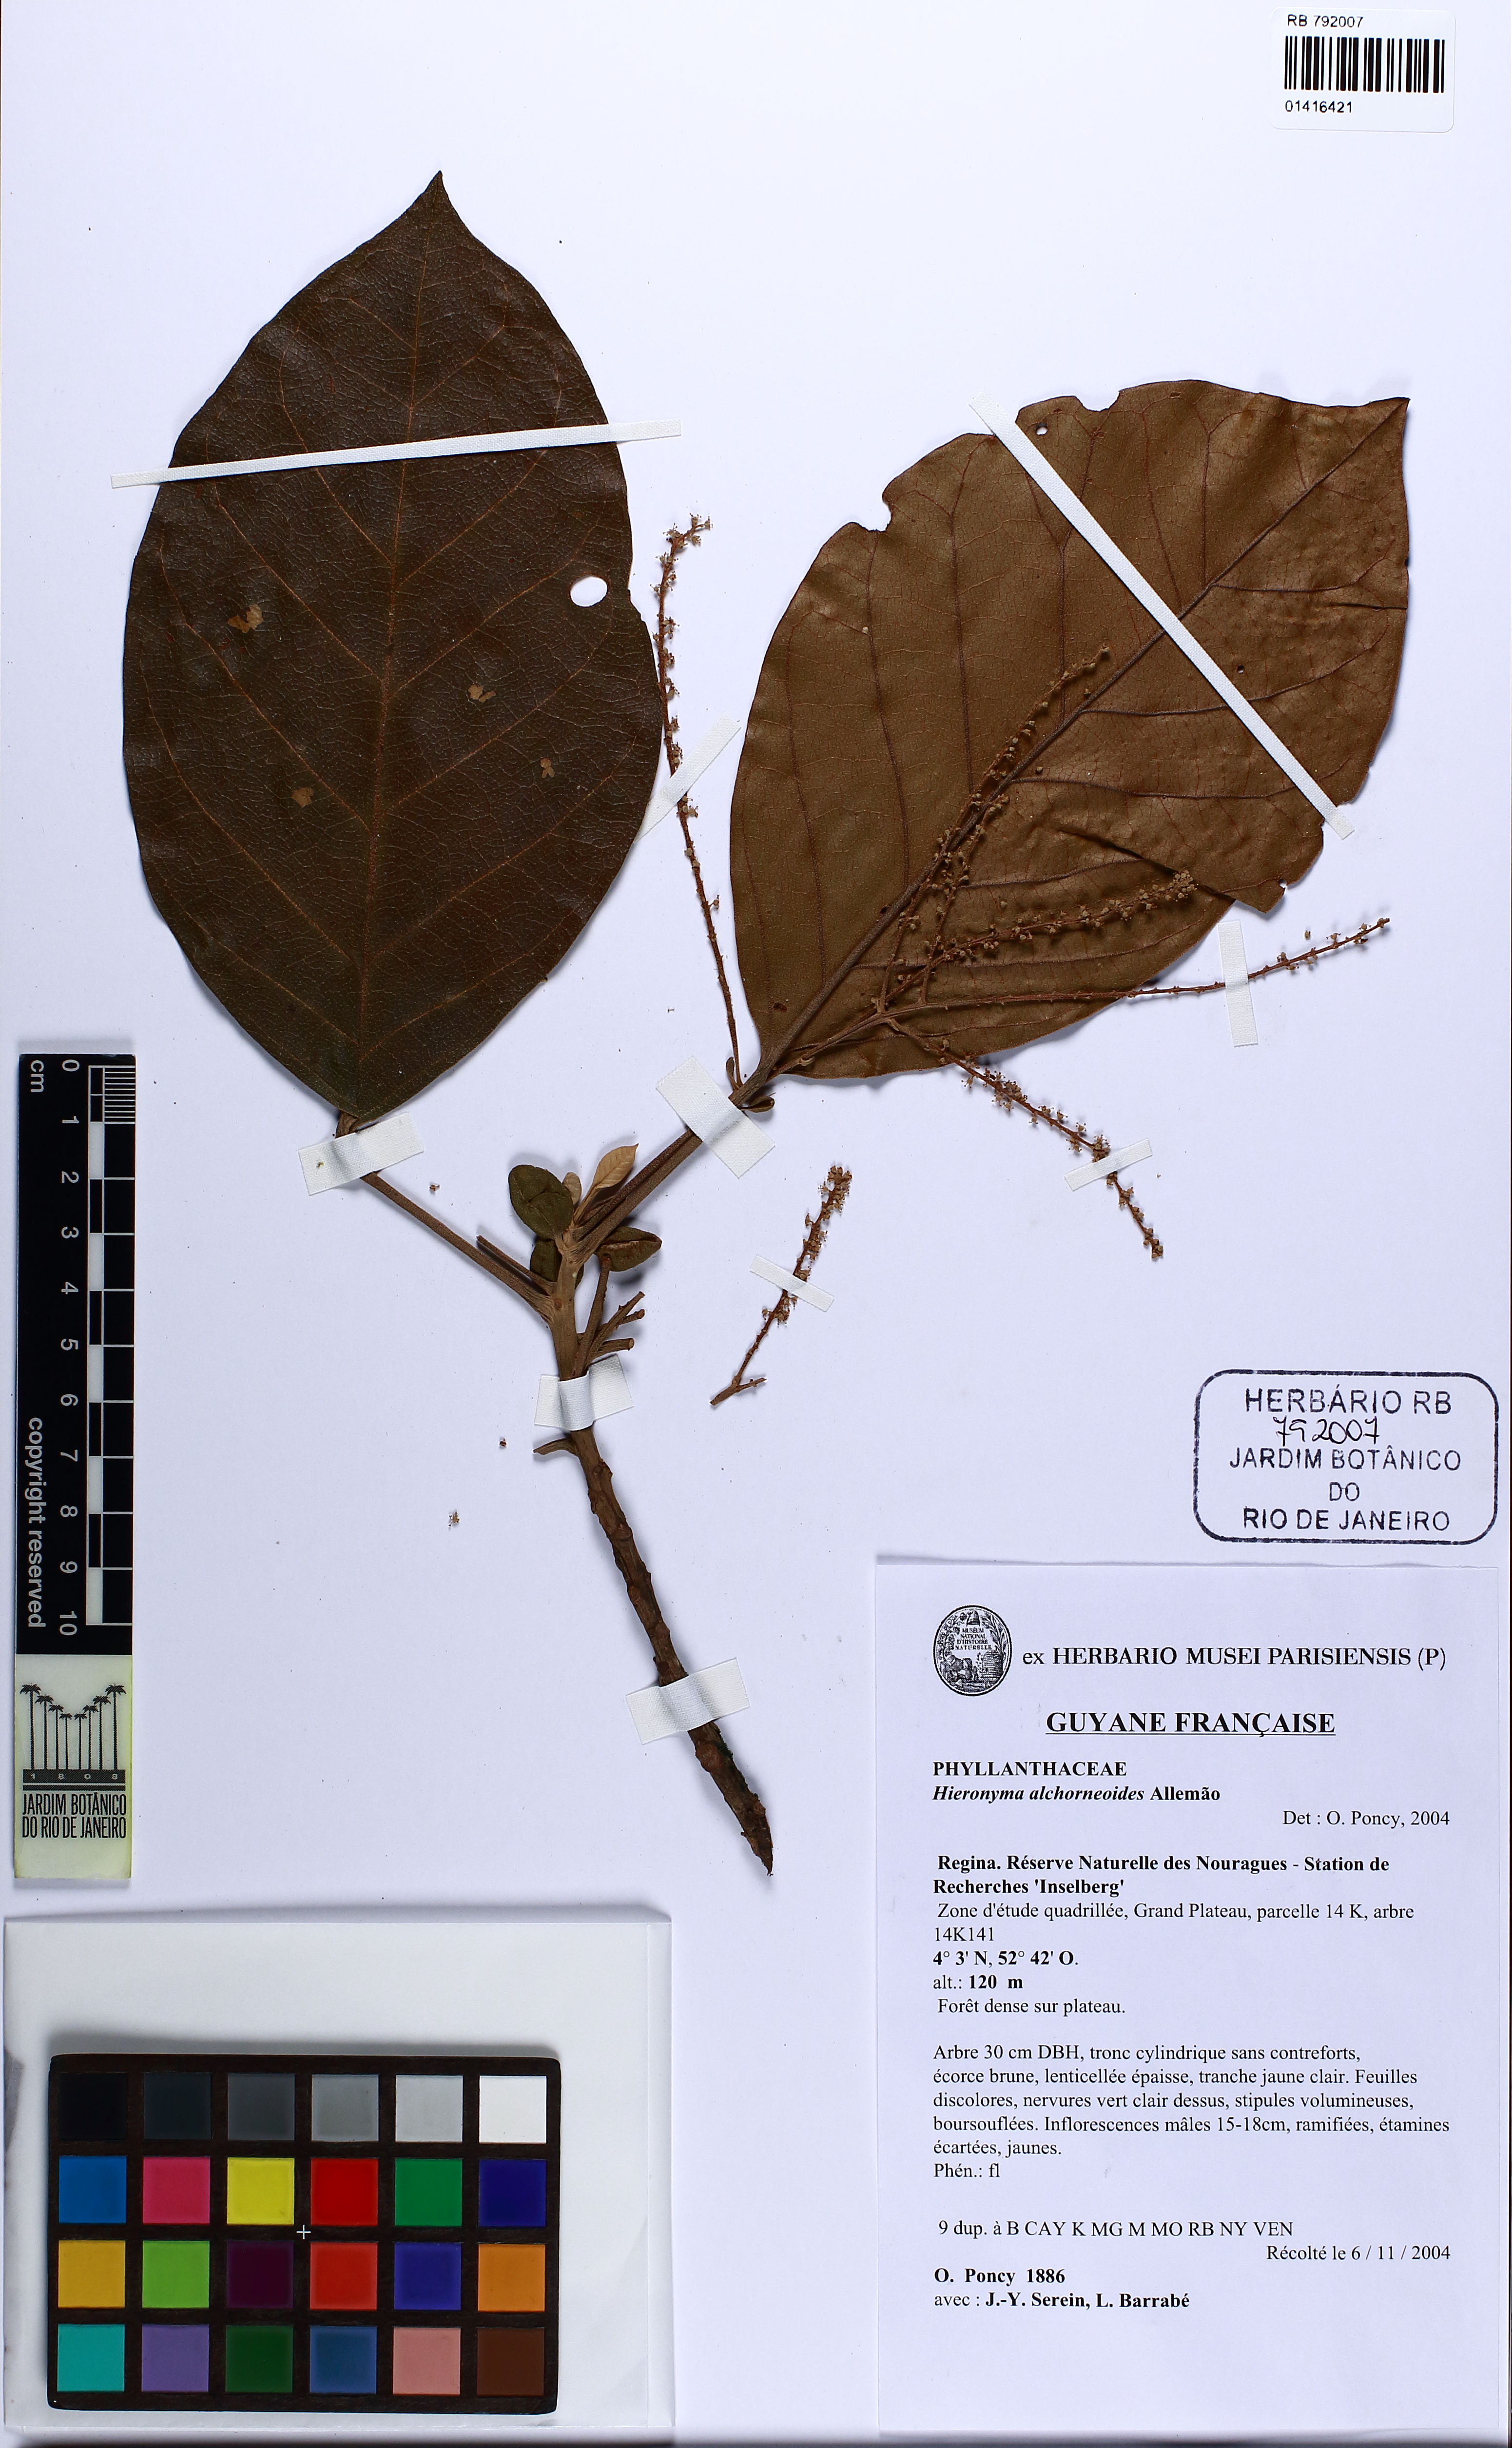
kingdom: Plantae
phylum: Tracheophyta
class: Magnoliopsida
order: Malpighiales
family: Phyllanthaceae
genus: Hieronyma
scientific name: Hieronyma alchorneoides
